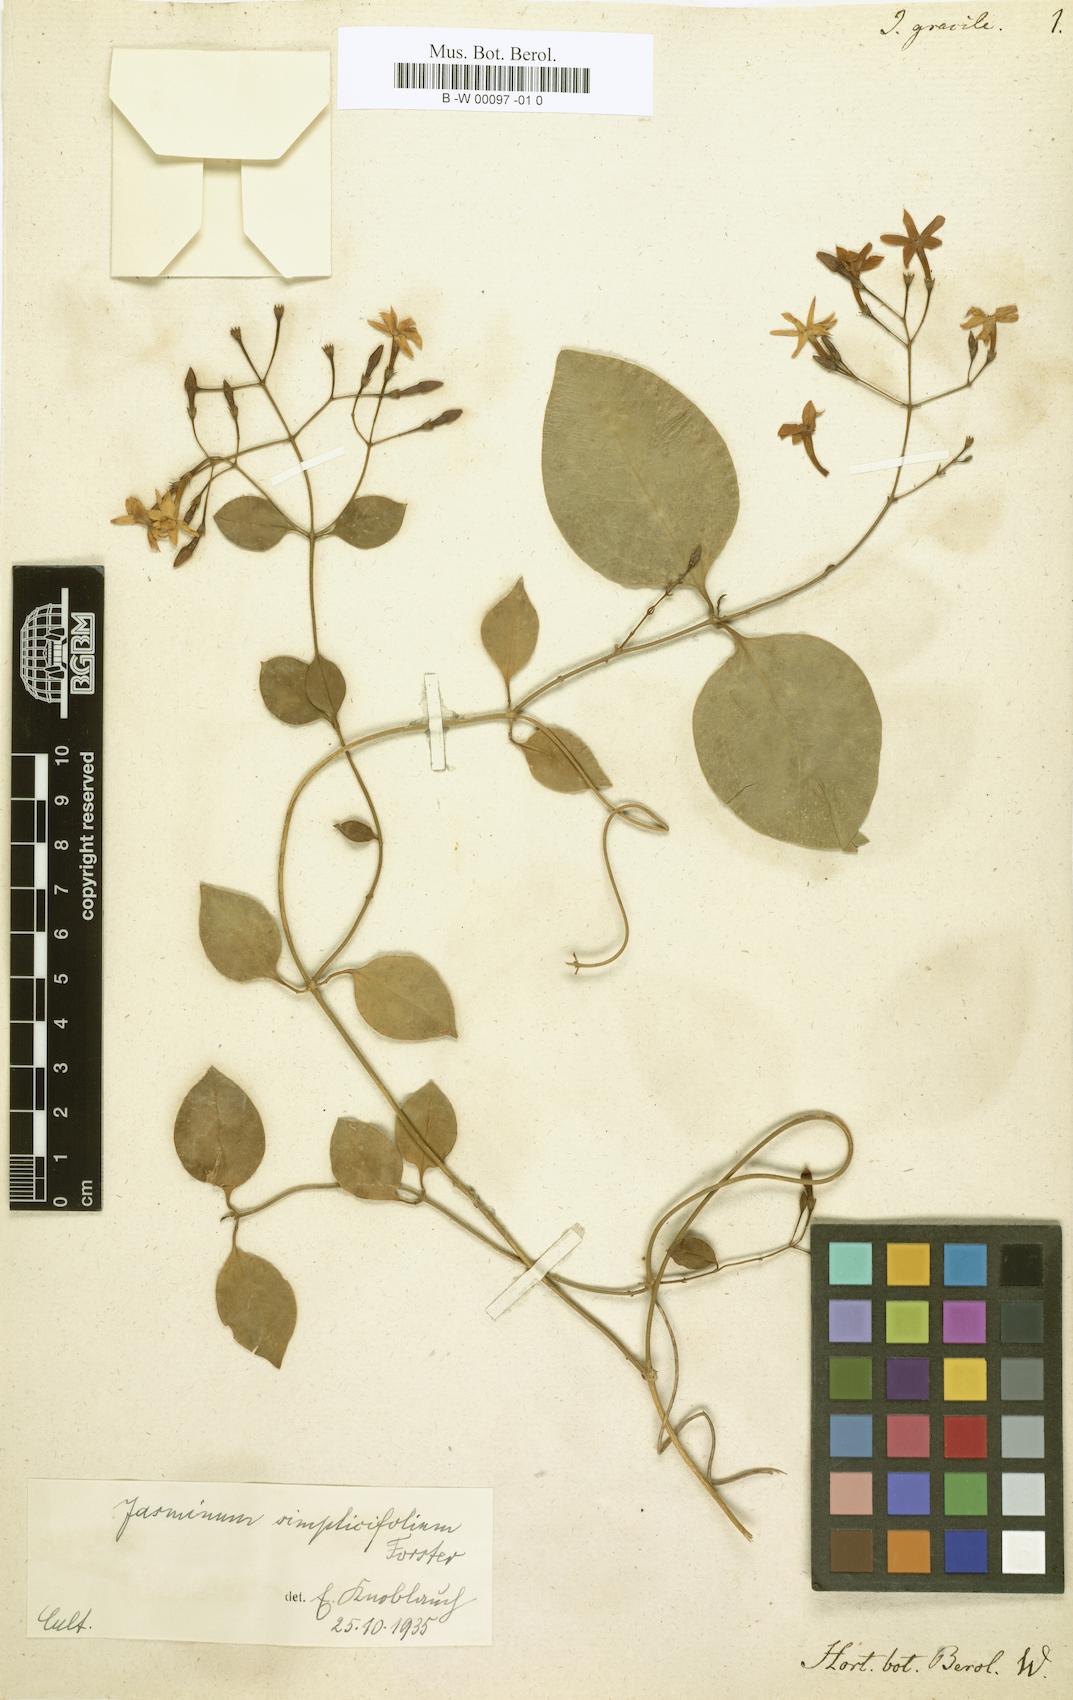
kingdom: Plantae
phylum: Tracheophyta
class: Magnoliopsida
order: Lamiales
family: Oleaceae
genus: Jasminum
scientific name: Jasminum simplicifolium
